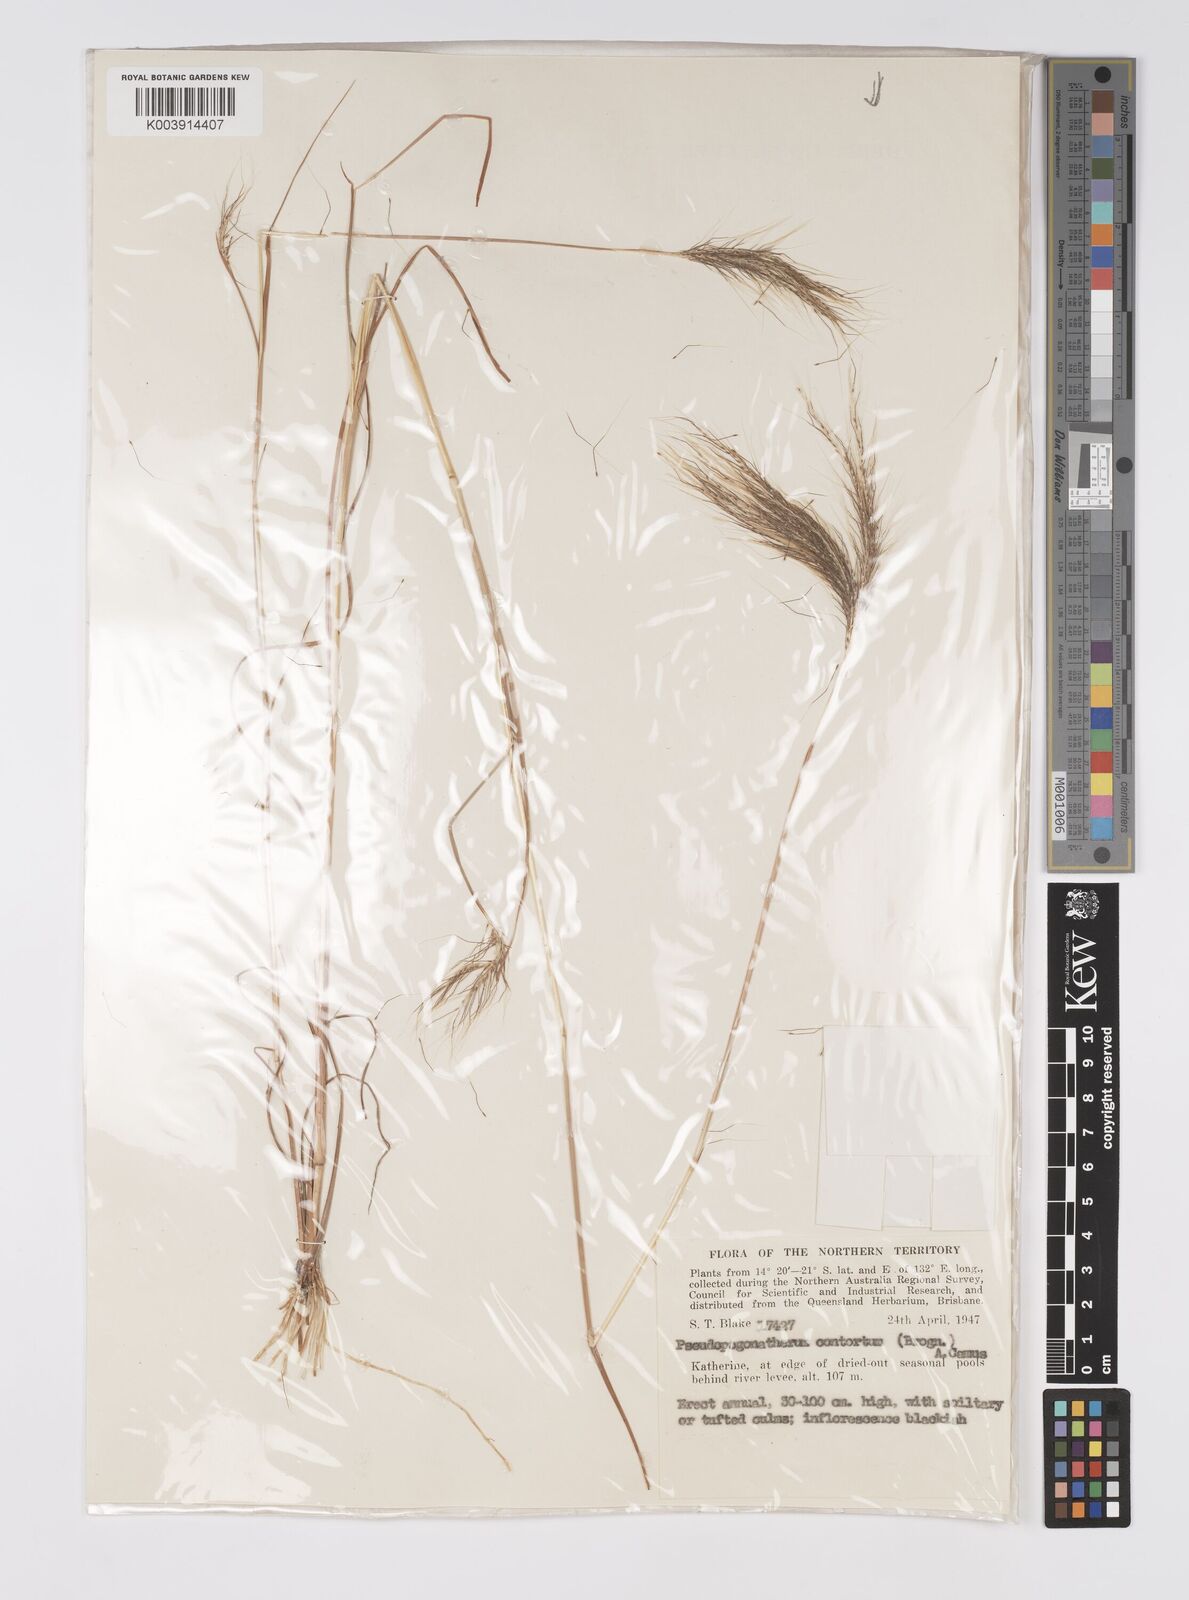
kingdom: Plantae
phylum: Tracheophyta
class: Liliopsida
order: Poales
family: Poaceae
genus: Pseudopogonatherum
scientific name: Pseudopogonatherum contortum
